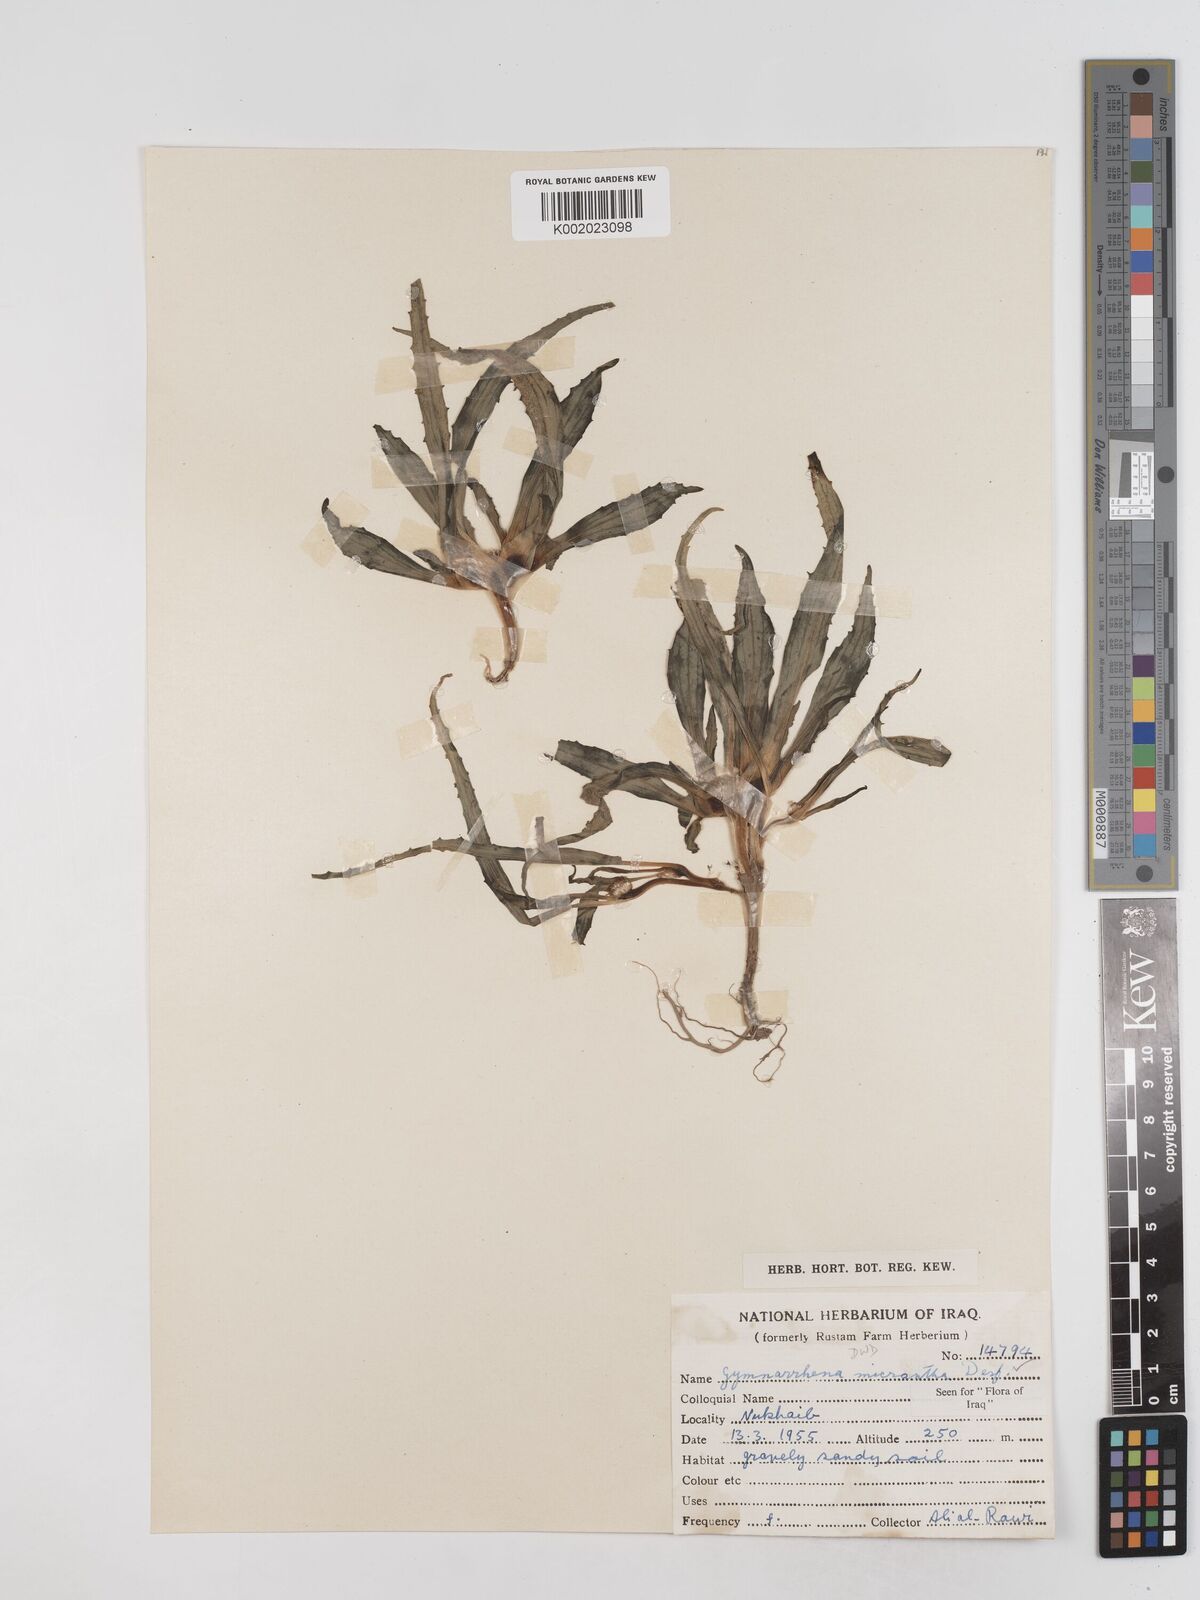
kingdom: Plantae
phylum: Tracheophyta
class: Magnoliopsida
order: Asterales
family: Asteraceae
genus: Gymnarrhena
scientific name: Gymnarrhena micrantha
